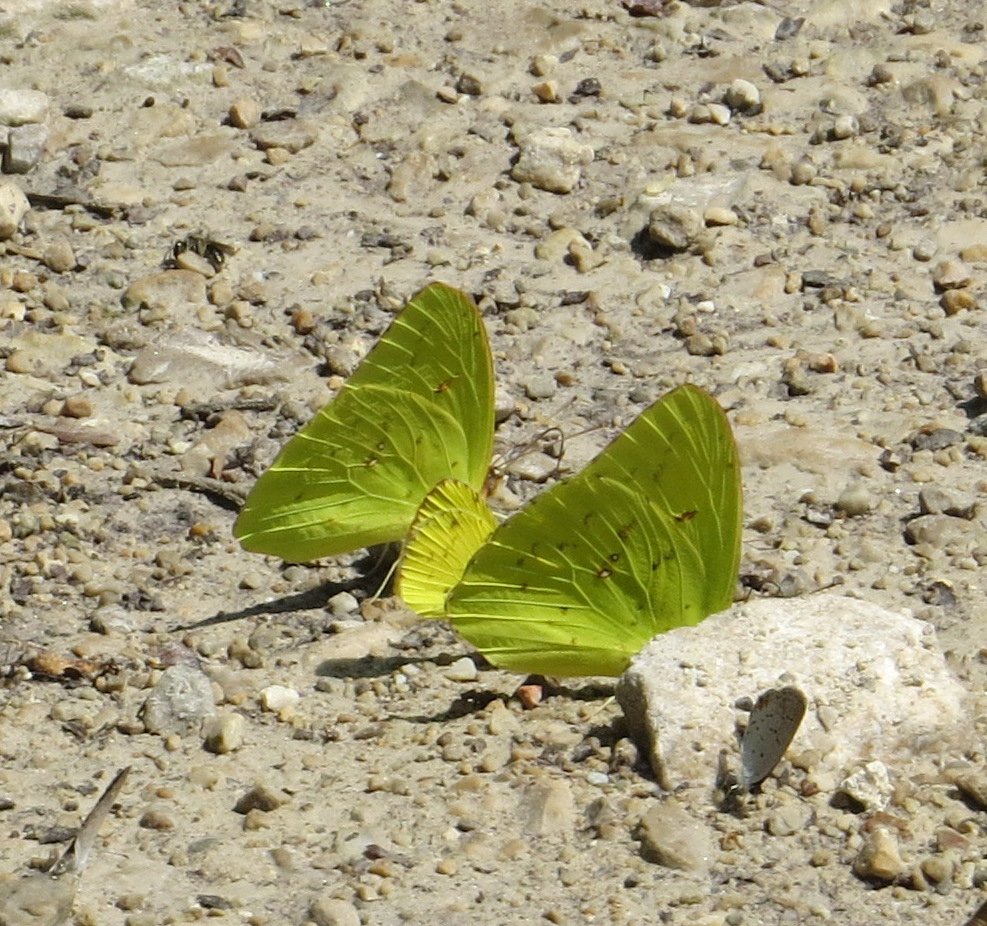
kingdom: Animalia
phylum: Arthropoda
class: Insecta
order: Lepidoptera
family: Pieridae
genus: Phoebis
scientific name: Phoebis sennae
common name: Cloudless Sulphur
